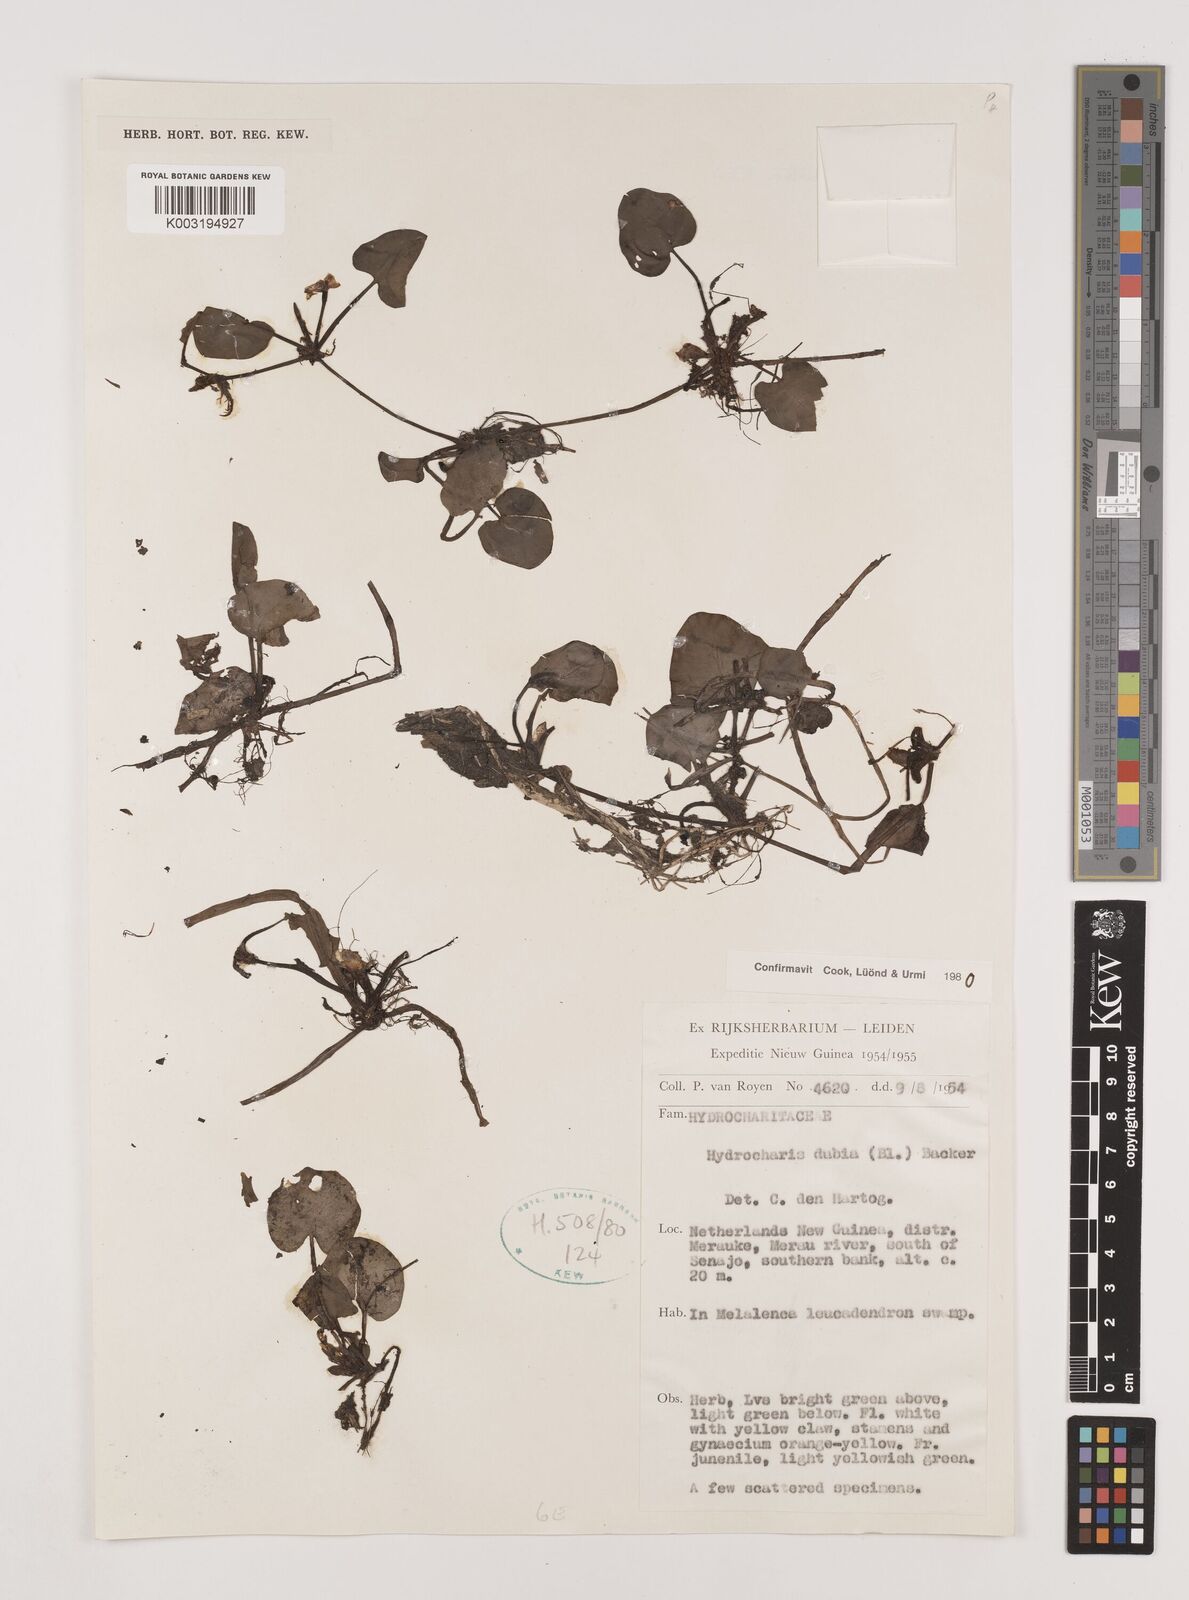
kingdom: Plantae
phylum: Tracheophyta
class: Liliopsida
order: Alismatales
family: Hydrocharitaceae
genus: Hydrocharis
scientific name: Hydrocharis dubia
